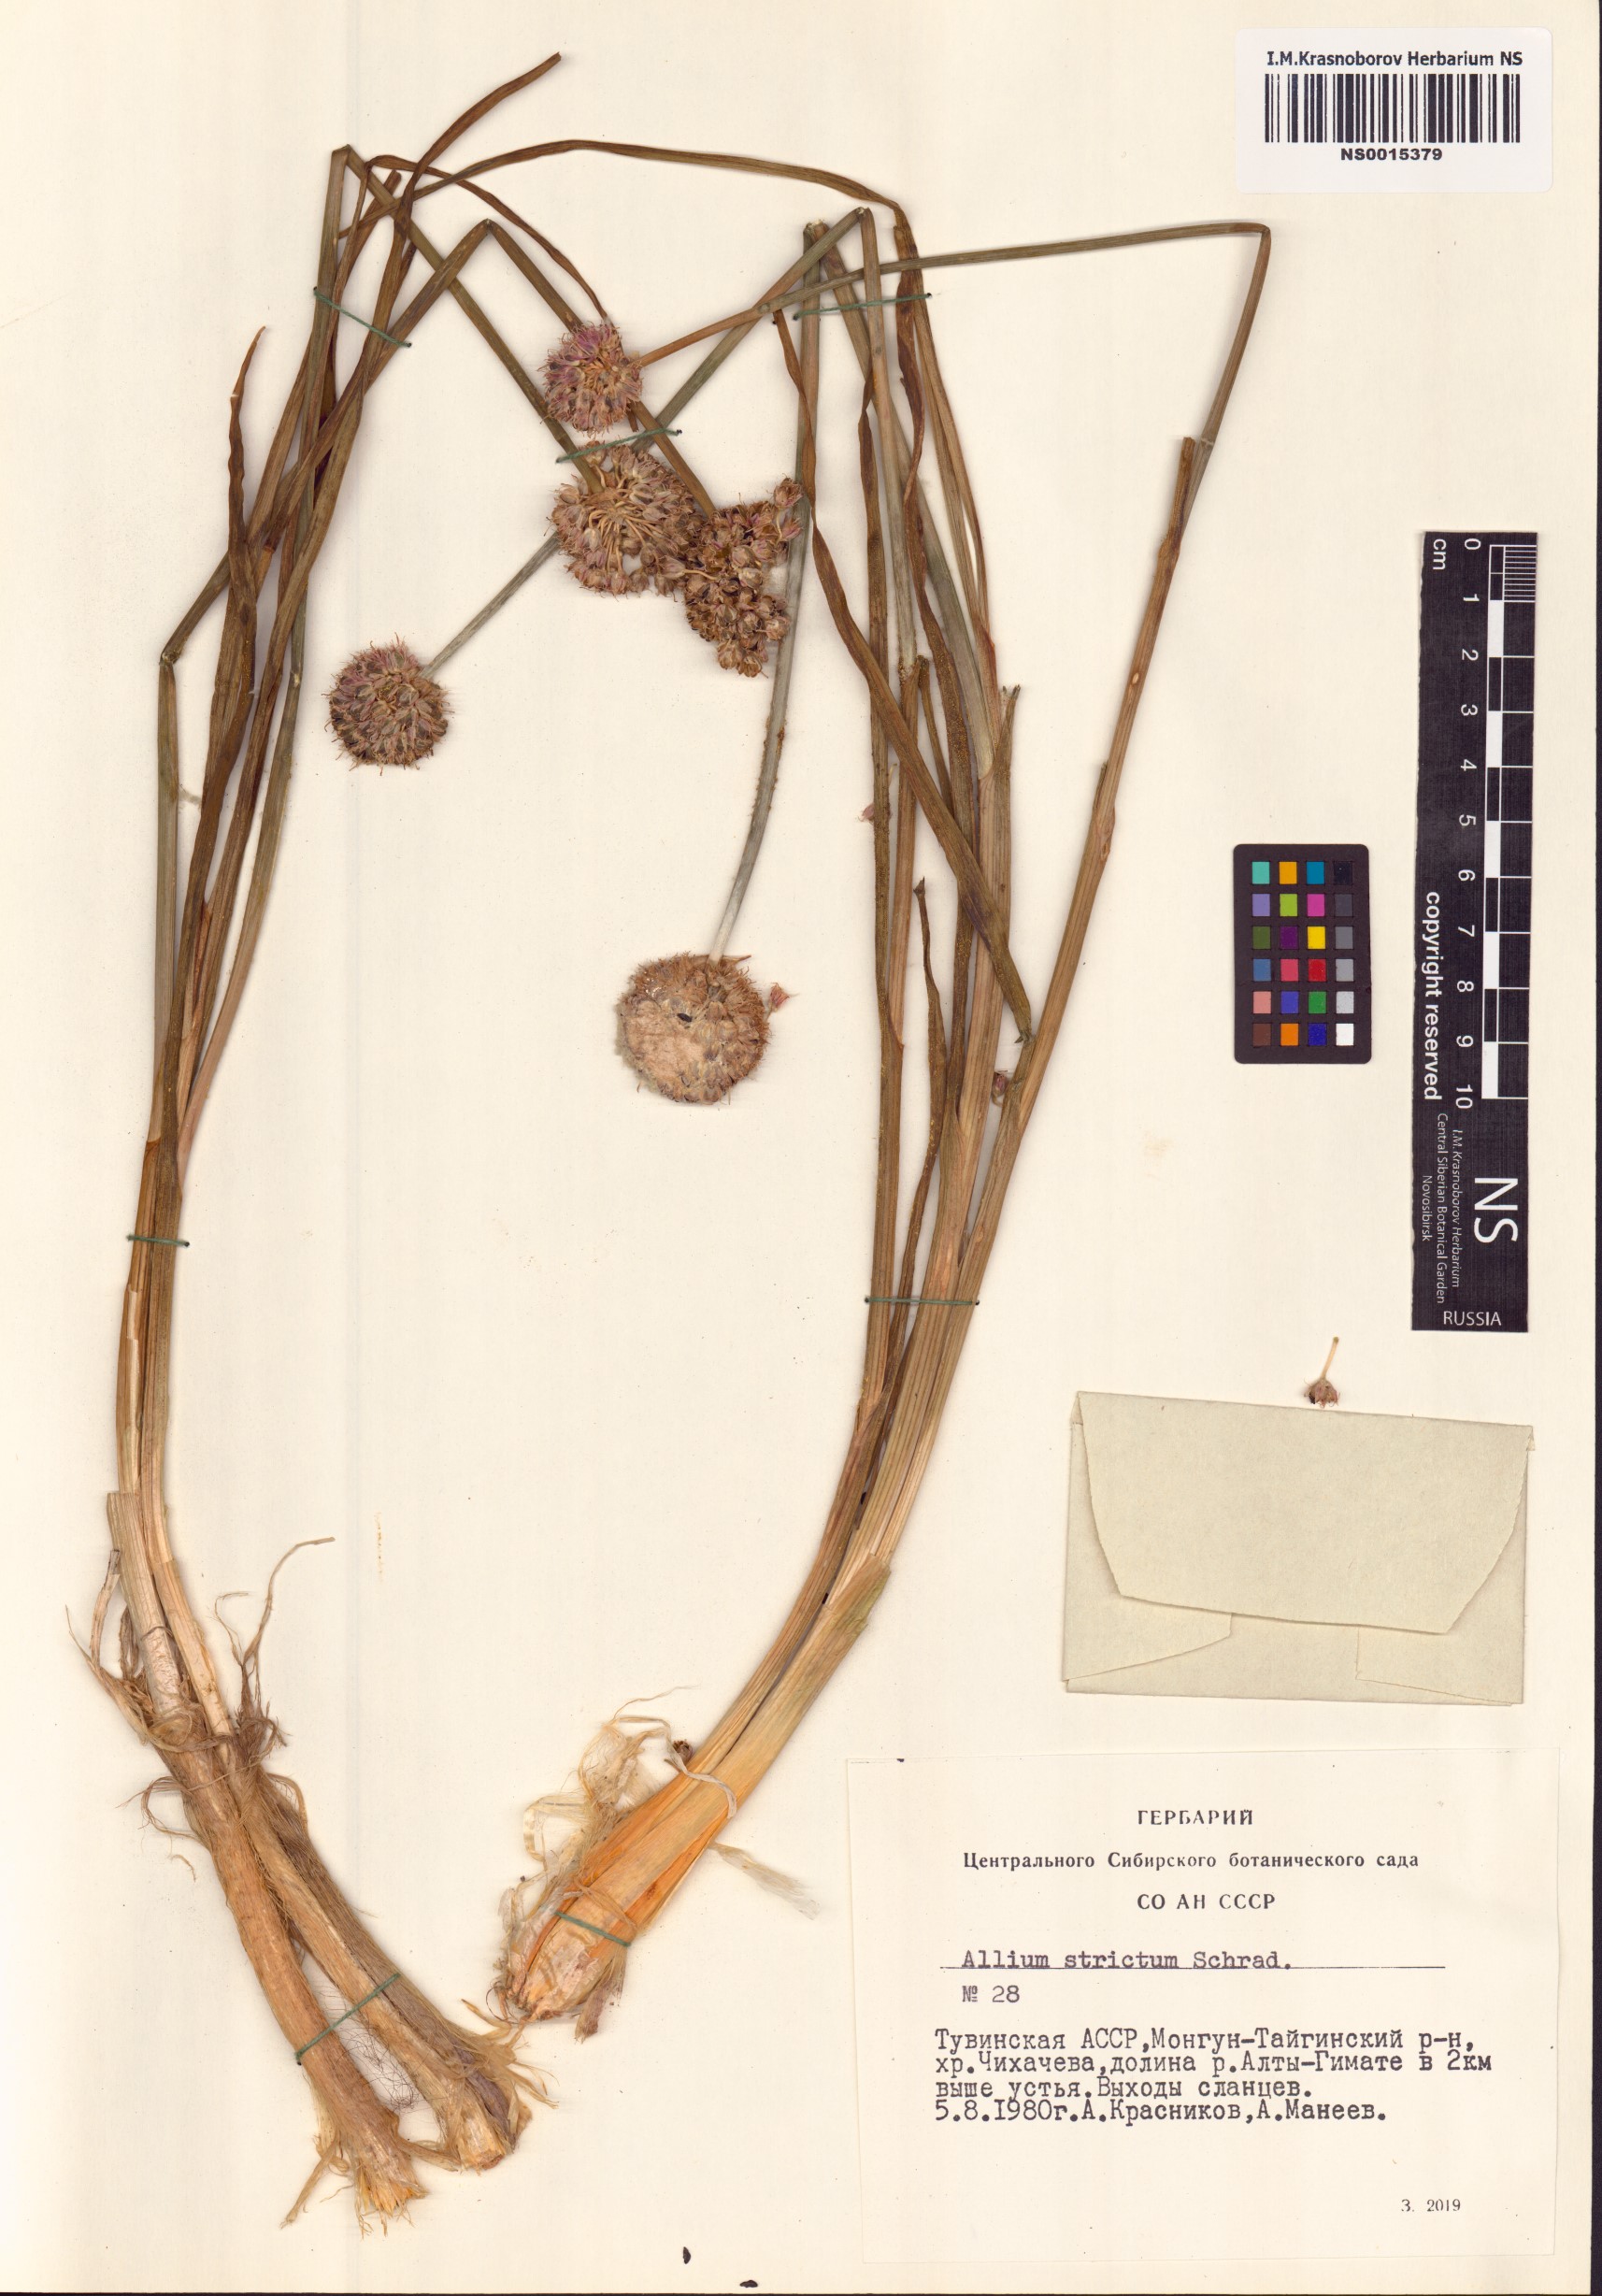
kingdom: Plantae
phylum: Tracheophyta
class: Liliopsida
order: Asparagales
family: Amaryllidaceae
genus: Allium
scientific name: Allium strictum
